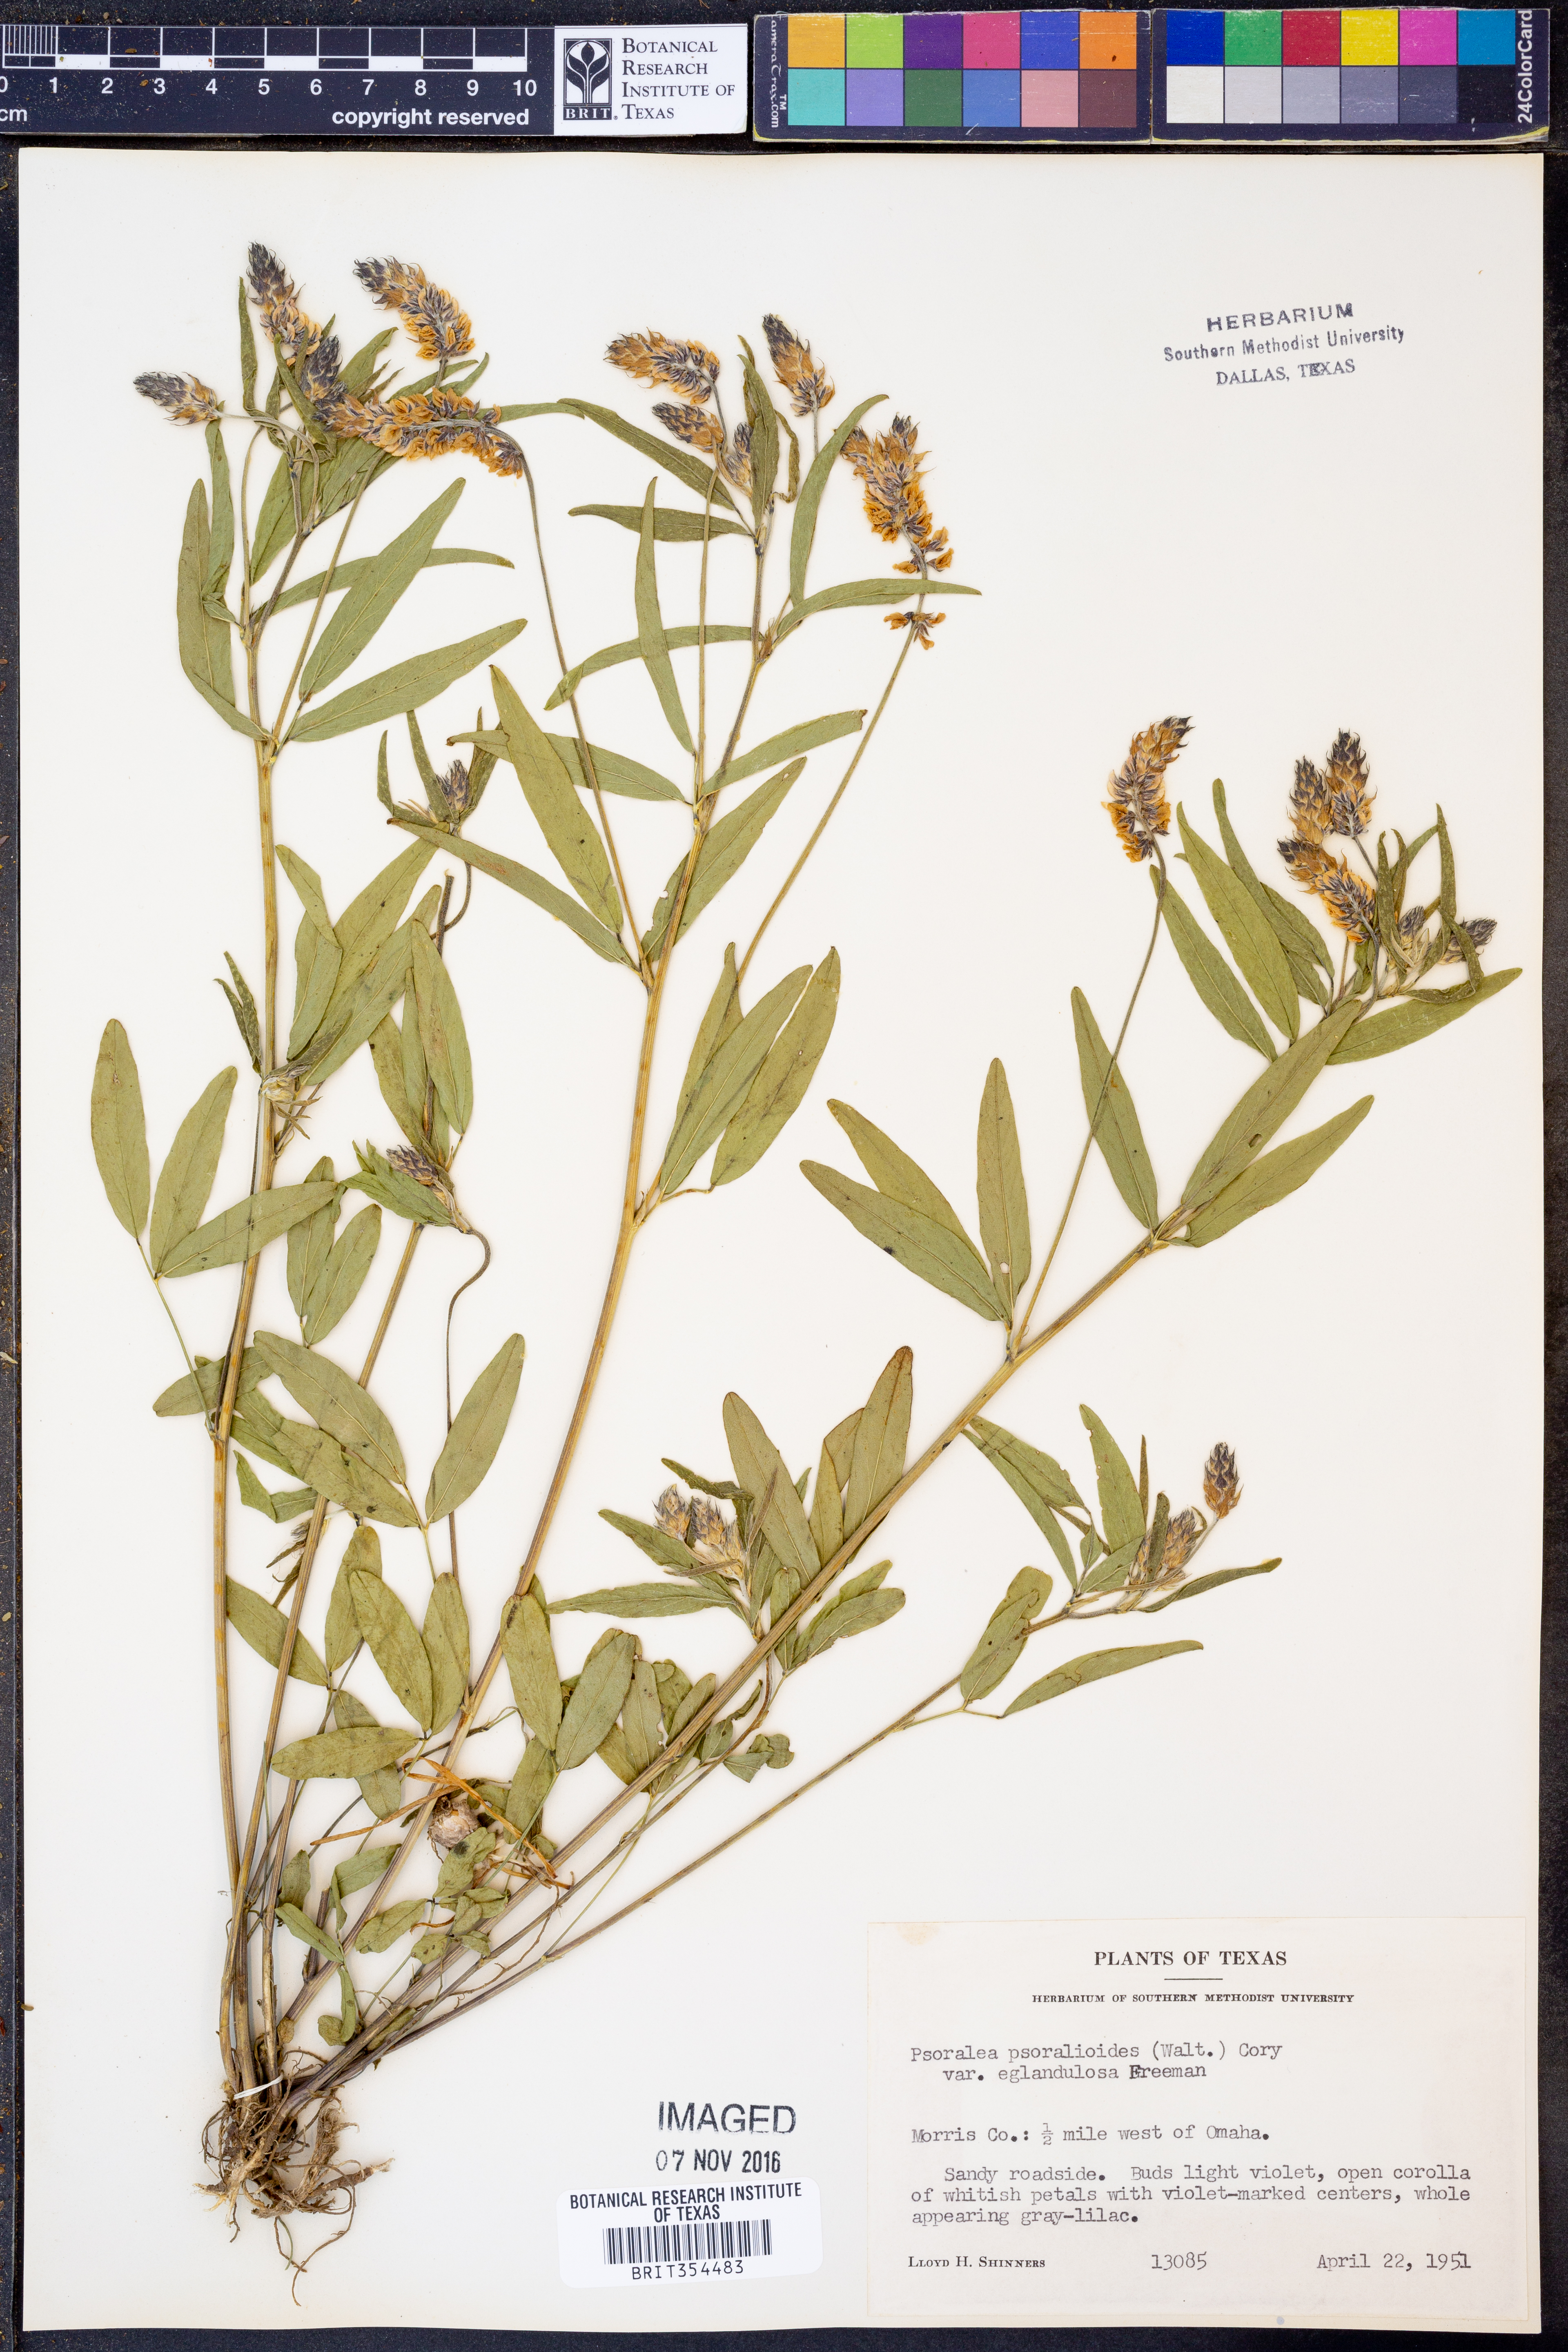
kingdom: Plantae
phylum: Tracheophyta
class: Magnoliopsida
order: Fabales
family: Fabaceae
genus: Orbexilum
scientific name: Orbexilum pedunculatum
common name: Sampson's snakeroot
